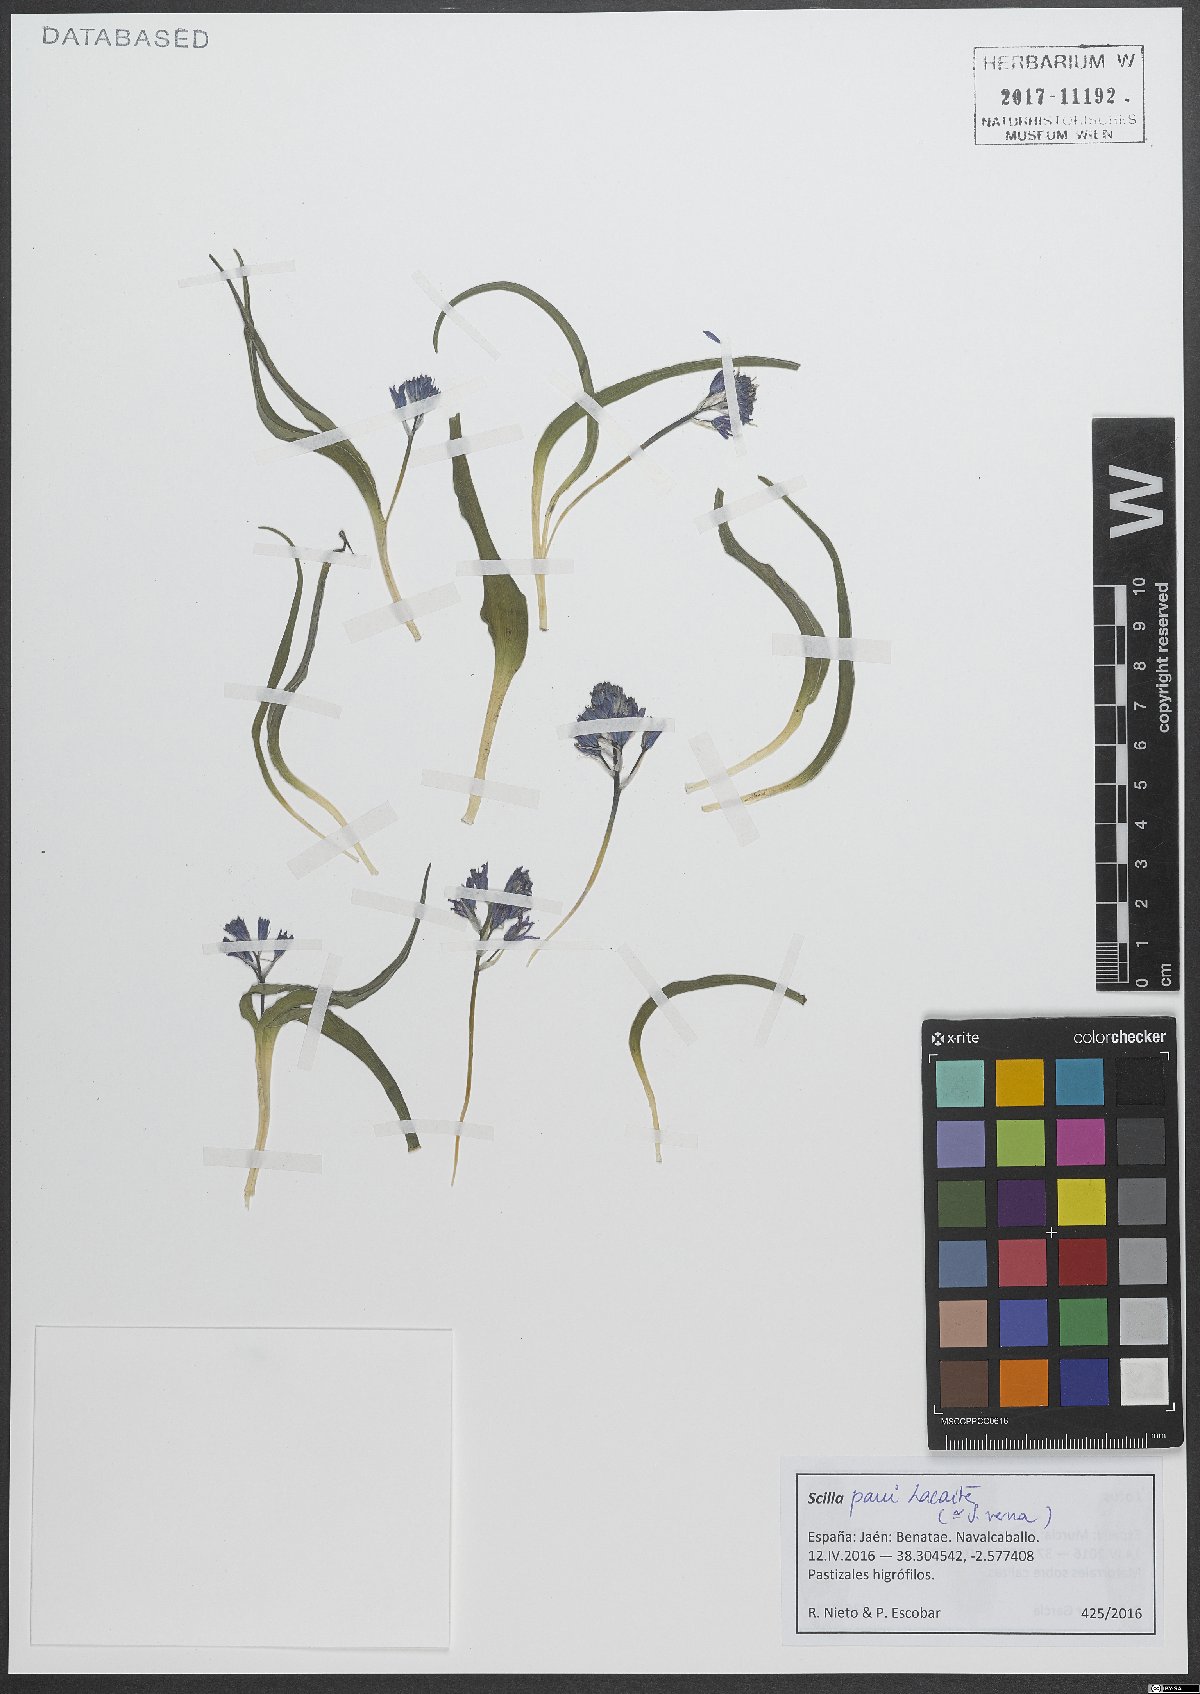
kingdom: Plantae
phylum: Tracheophyta
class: Liliopsida
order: Asparagales
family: Asparagaceae
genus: Scilla
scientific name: Scilla paui
